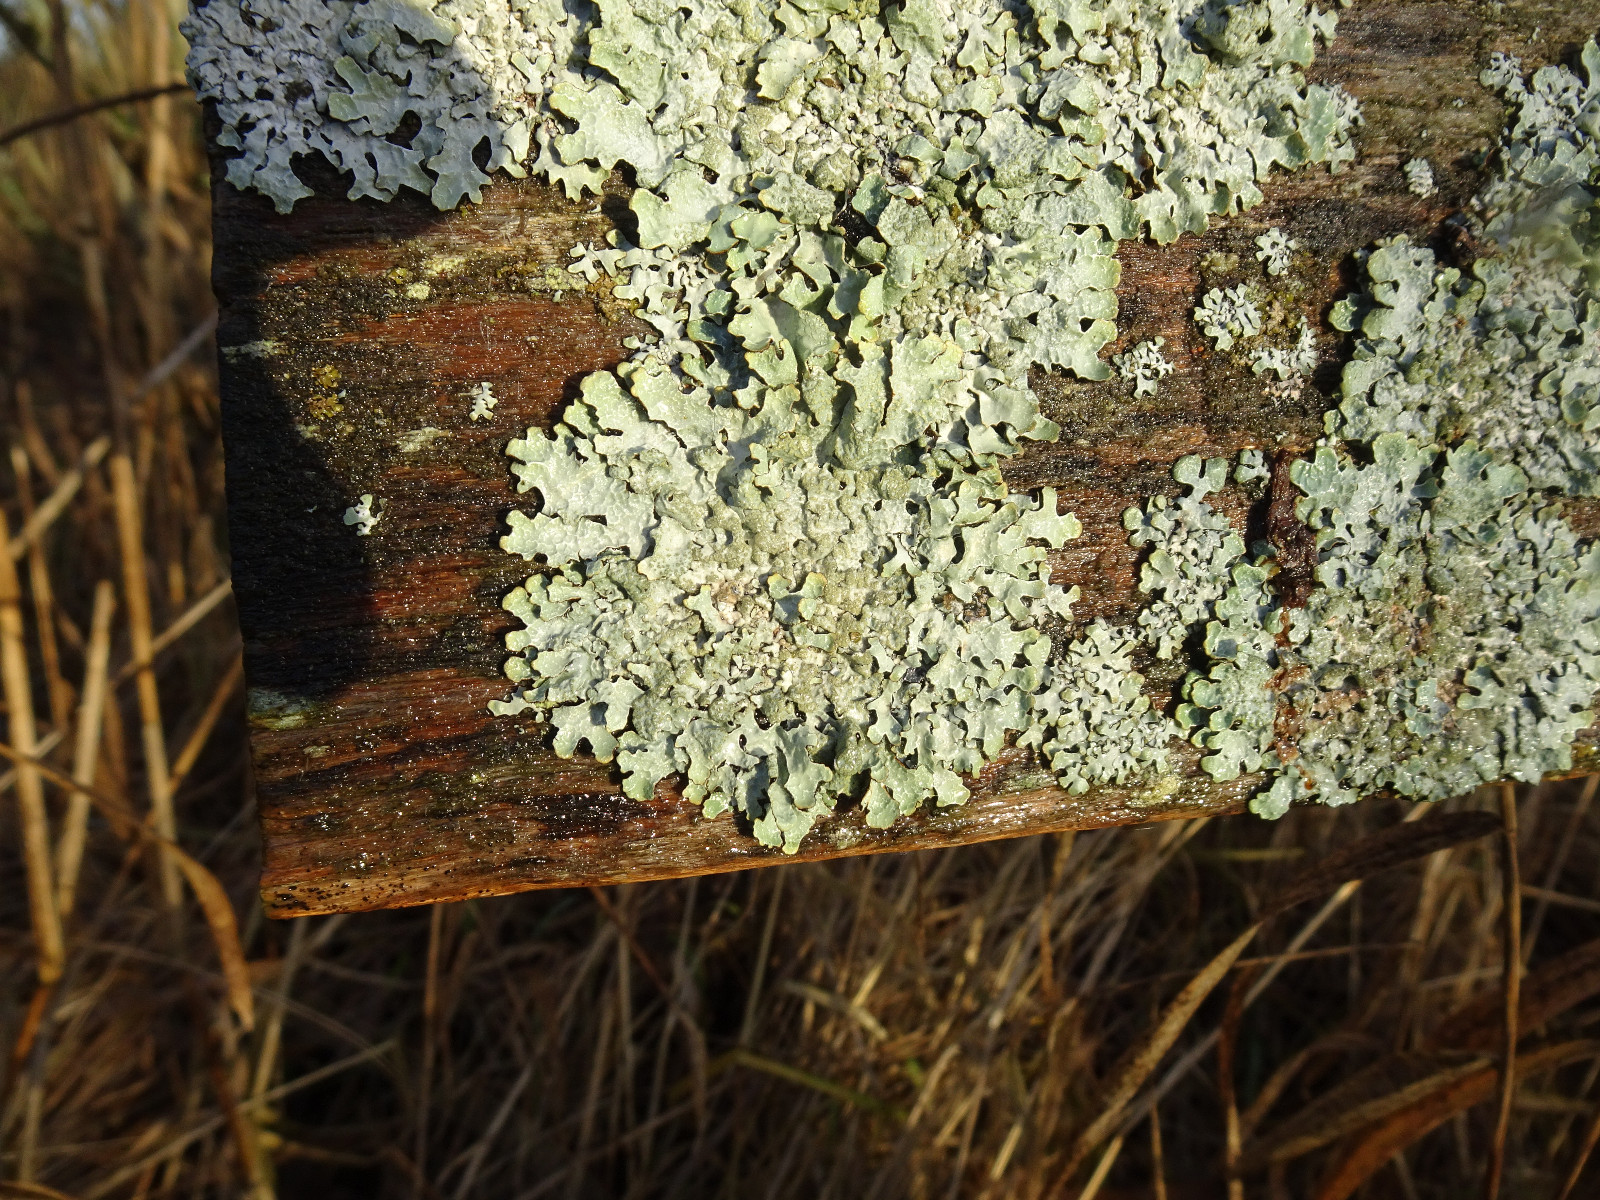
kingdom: Fungi
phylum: Ascomycota
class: Lecanoromycetes
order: Lecanorales
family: Parmeliaceae
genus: Parmelia
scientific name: Parmelia sulcata
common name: rynket skållav
